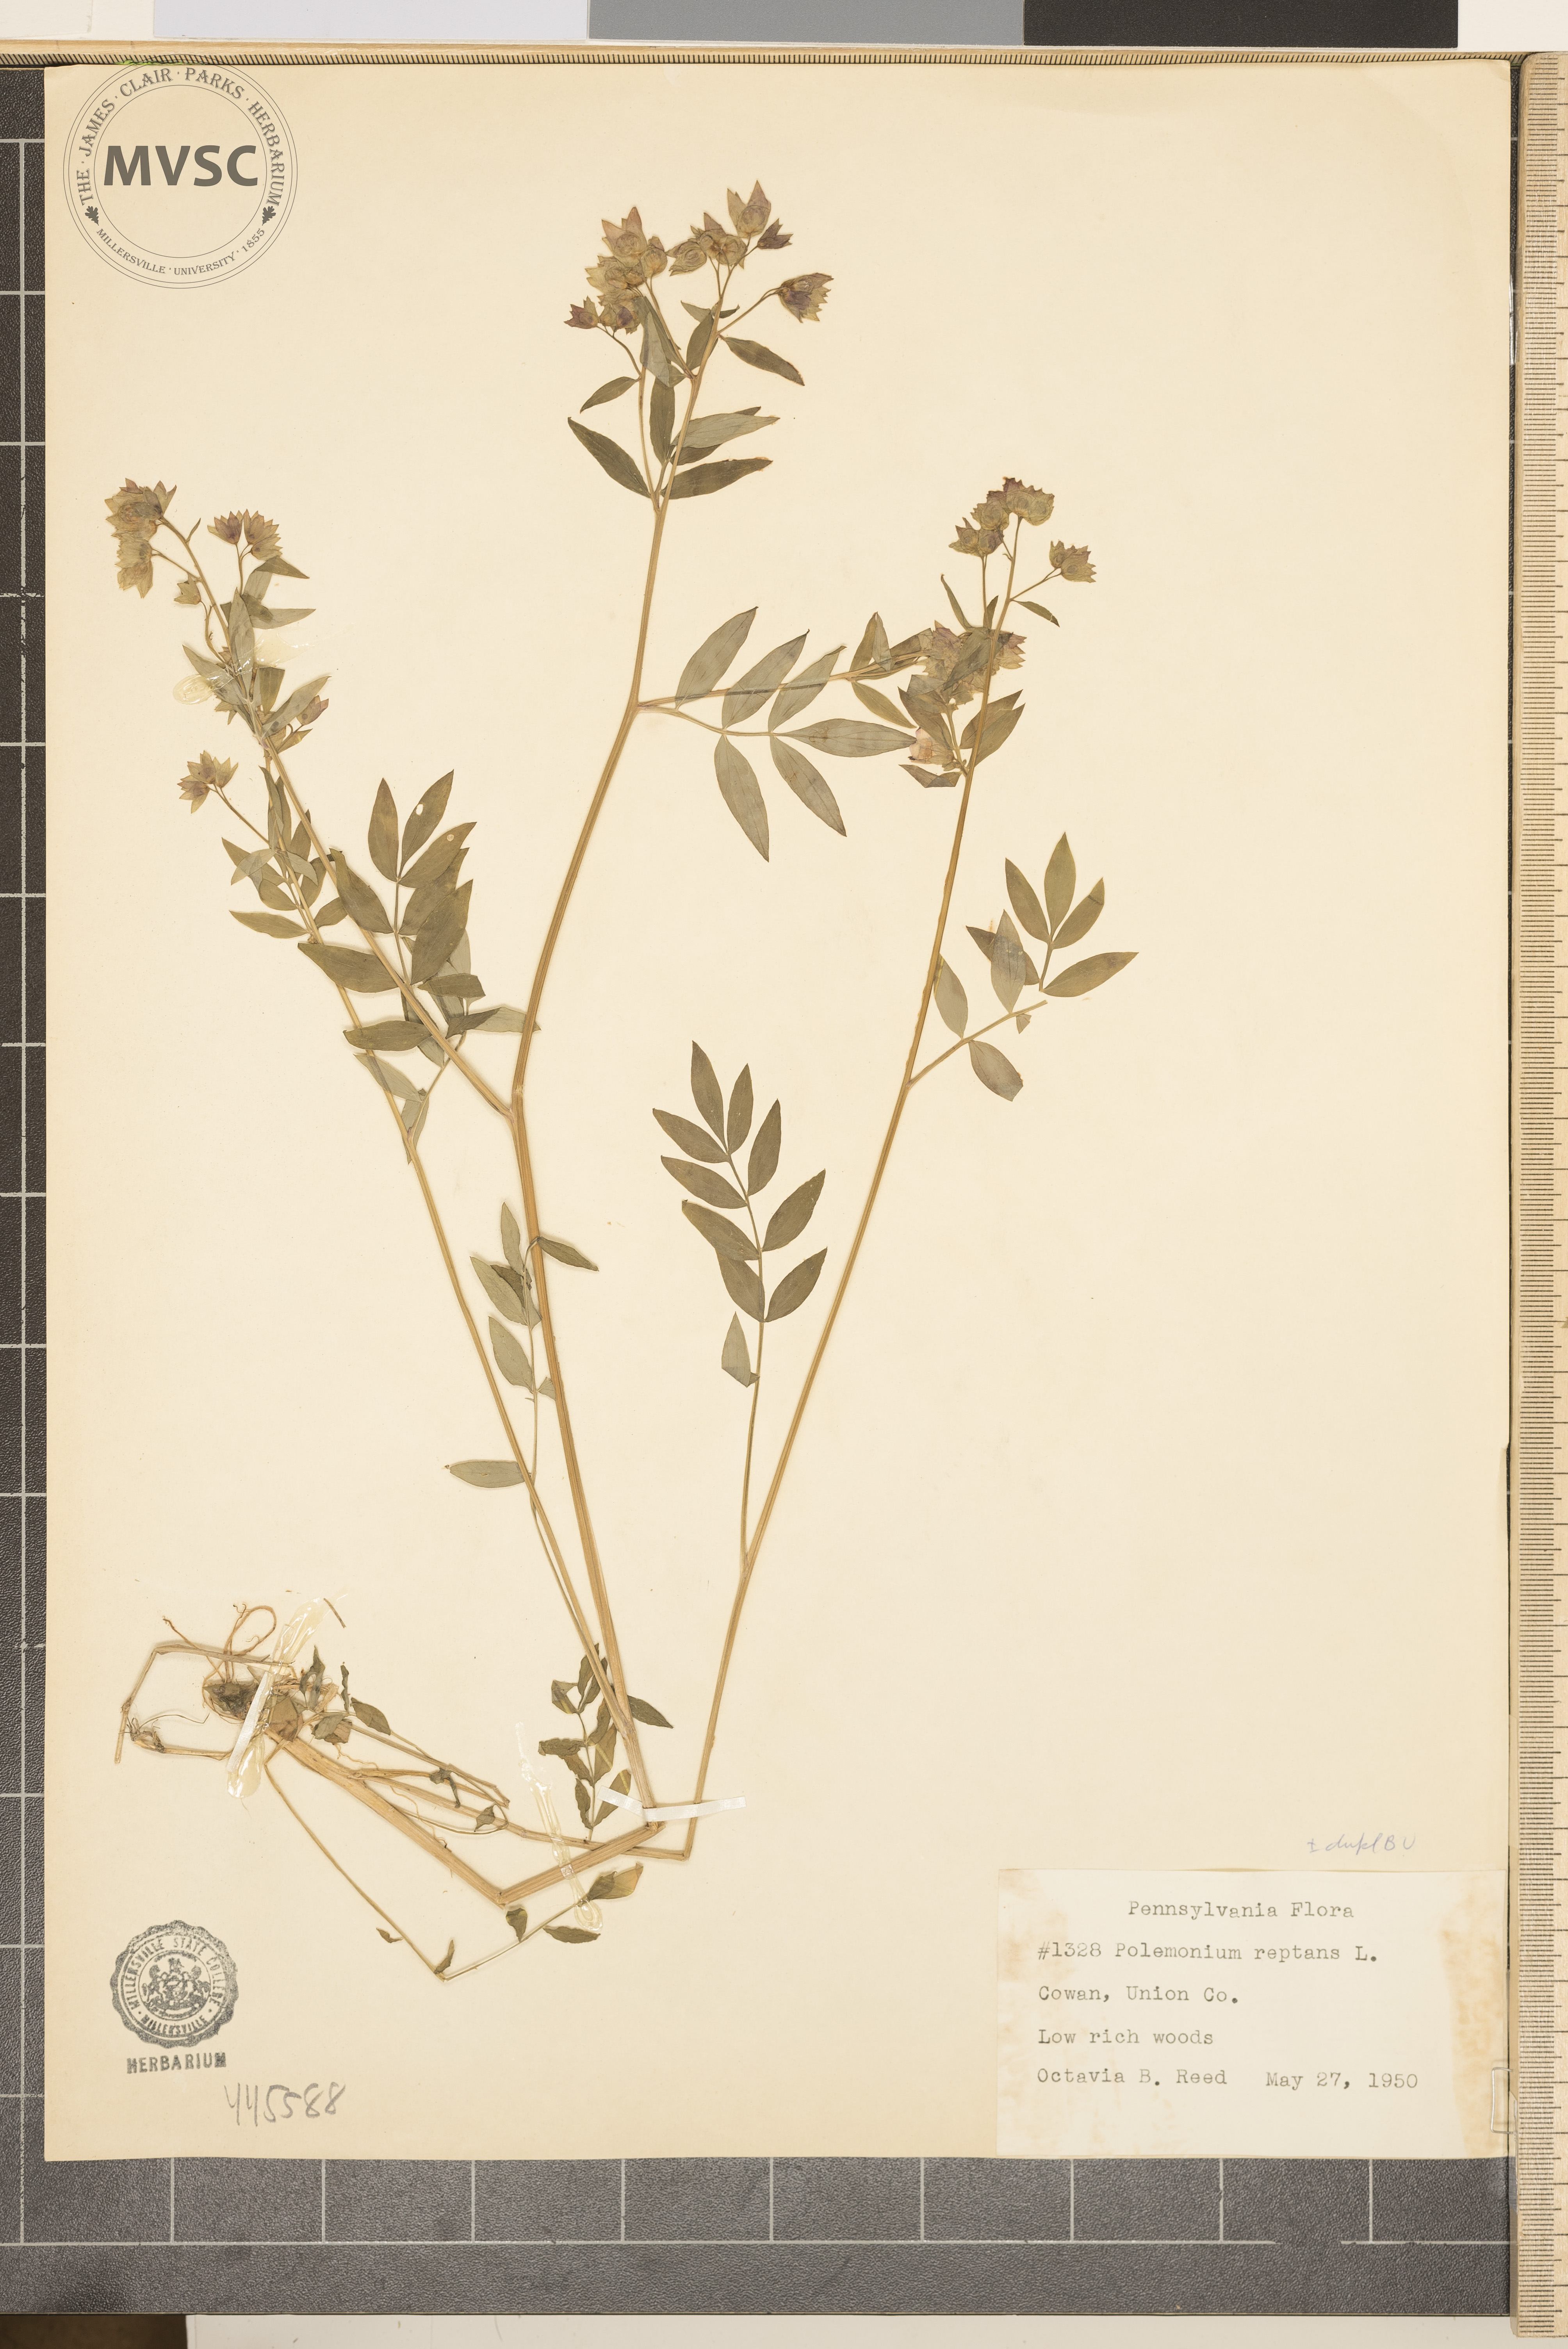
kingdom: Plantae
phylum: Tracheophyta
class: Magnoliopsida
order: Ericales
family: Polemoniaceae
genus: Polemonium
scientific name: Polemonium reptans
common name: Creeping jacob's-ladder
